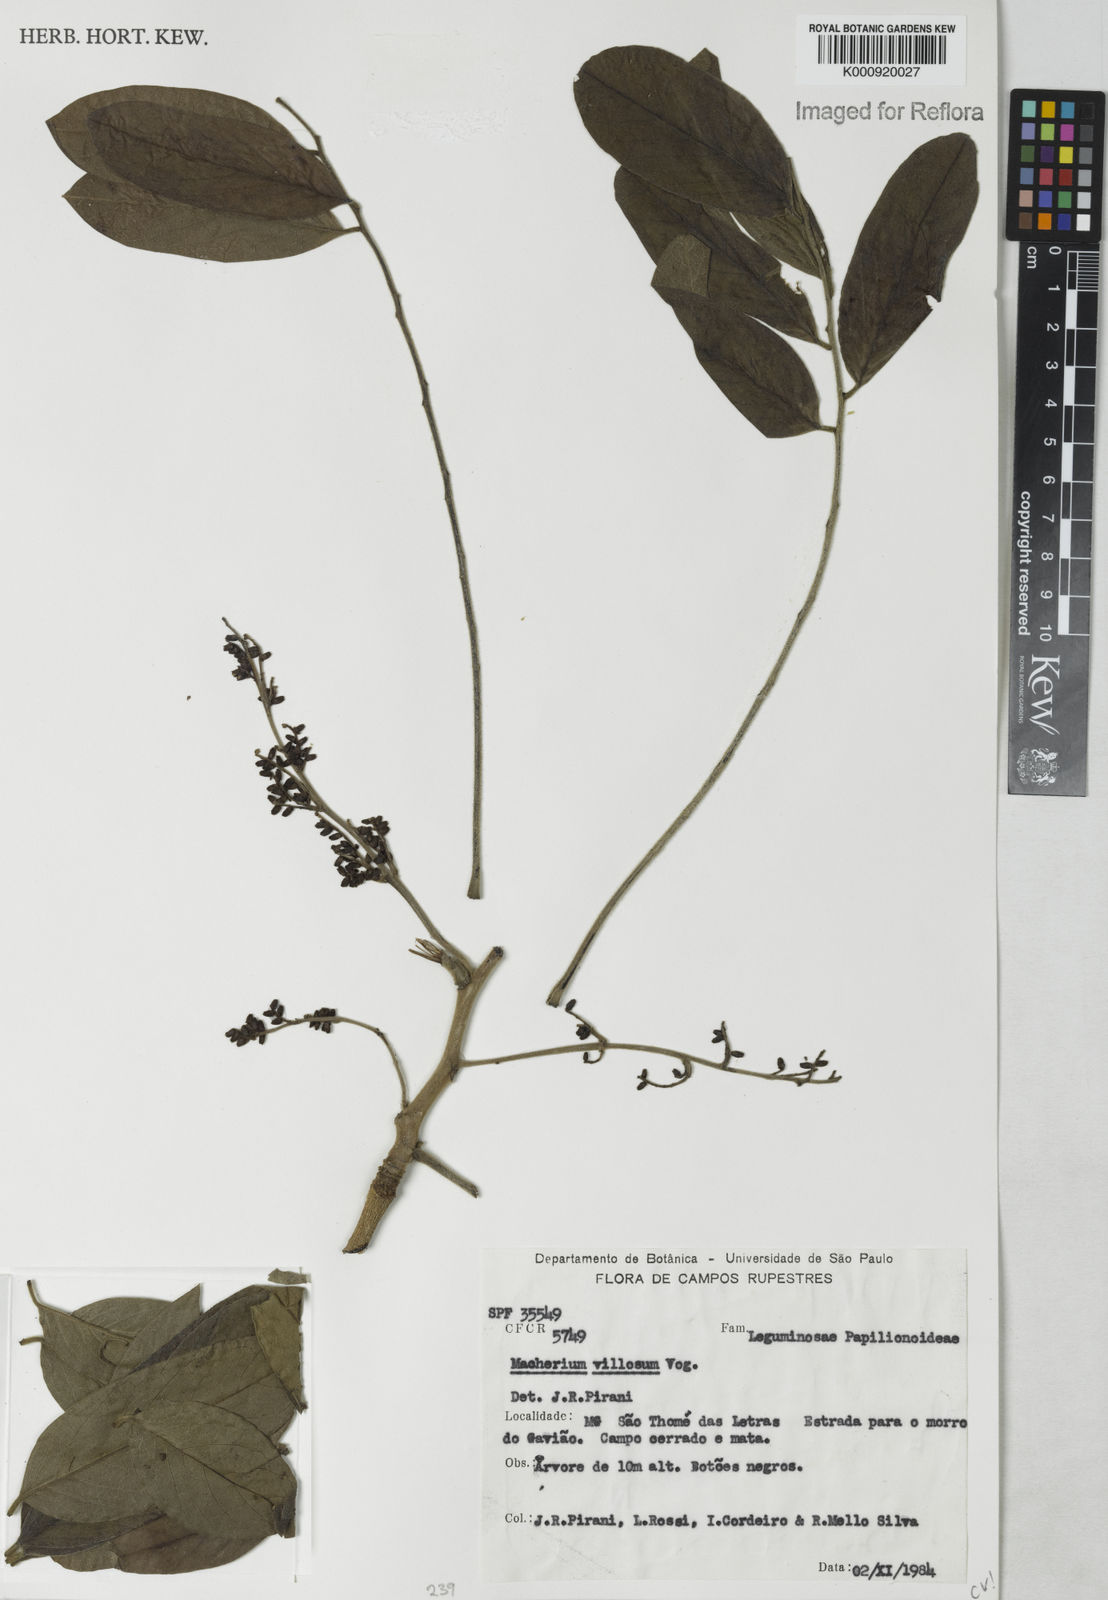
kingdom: Plantae
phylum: Tracheophyta
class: Magnoliopsida
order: Fabales
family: Fabaceae
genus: Machaerium
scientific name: Machaerium villosum
